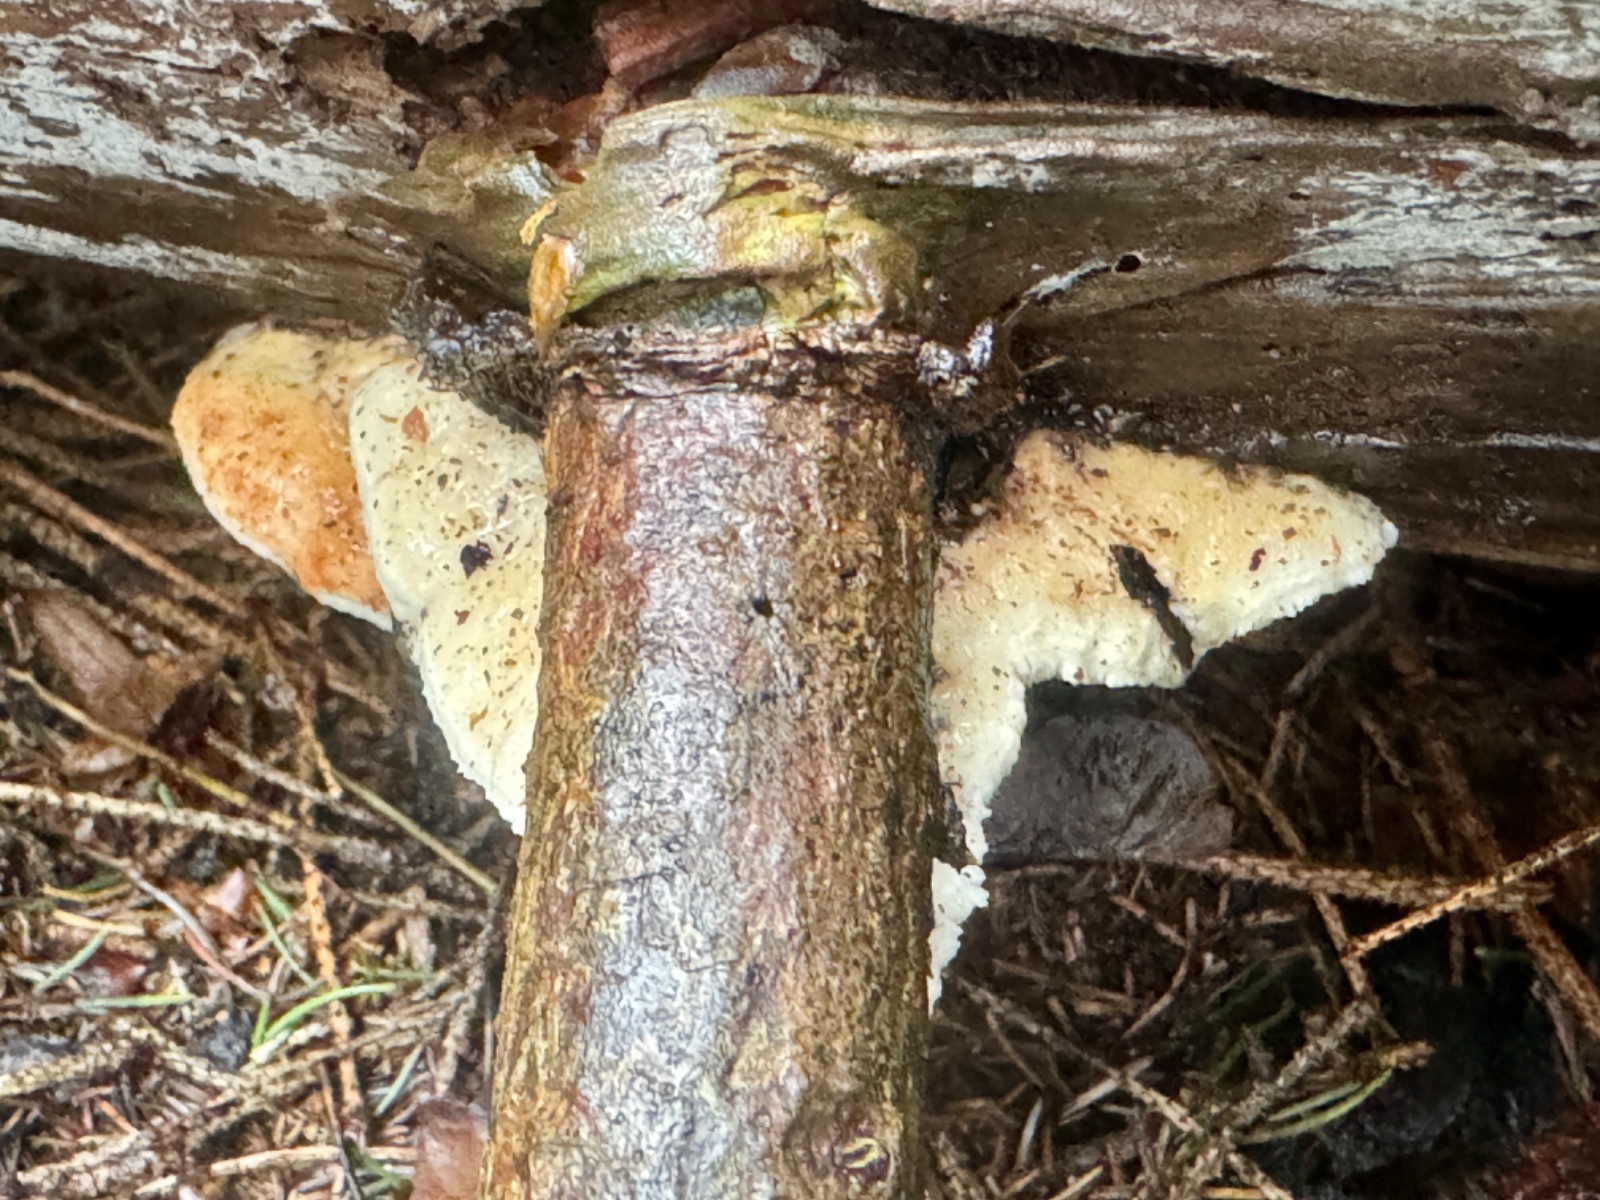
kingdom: Fungi
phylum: Basidiomycota
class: Agaricomycetes
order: Polyporales
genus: Fuscopostia
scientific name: Fuscopostia fragilis
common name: brunende kødporesvamp
